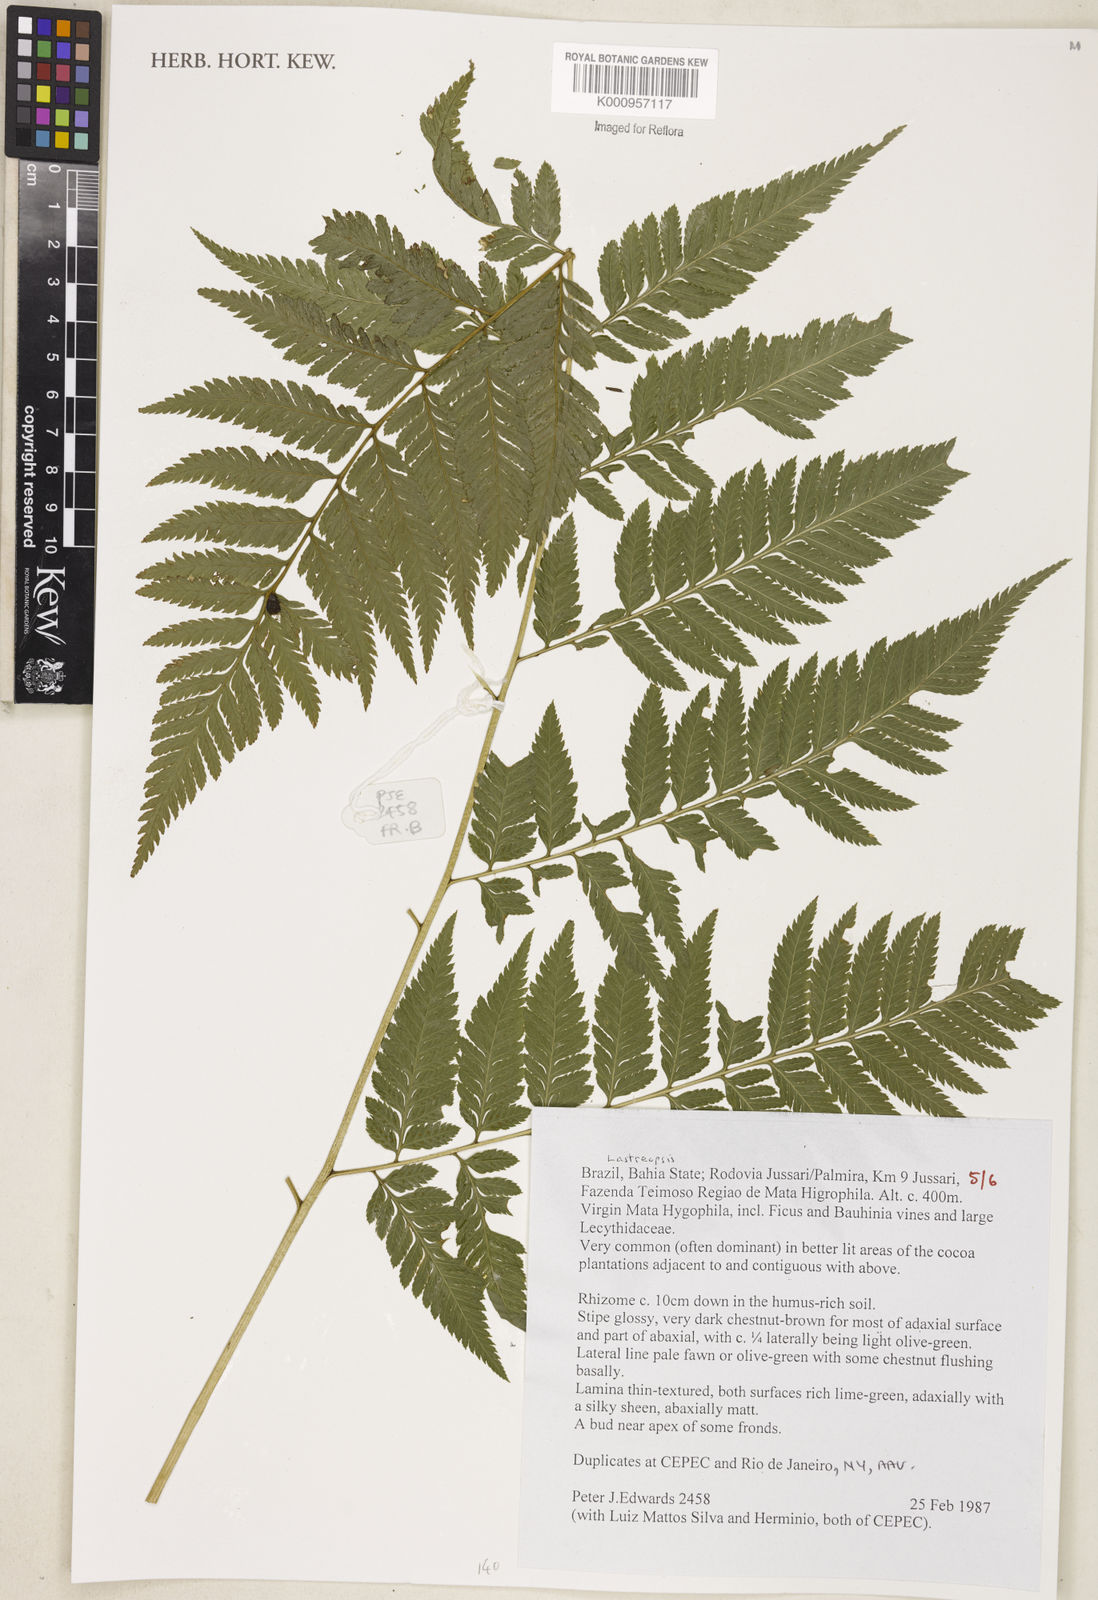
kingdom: Plantae
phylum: Tracheophyta
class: Polypodiopsida
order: Polypodiales
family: Dryopteridaceae
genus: Lastreopsis
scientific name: Lastreopsis
